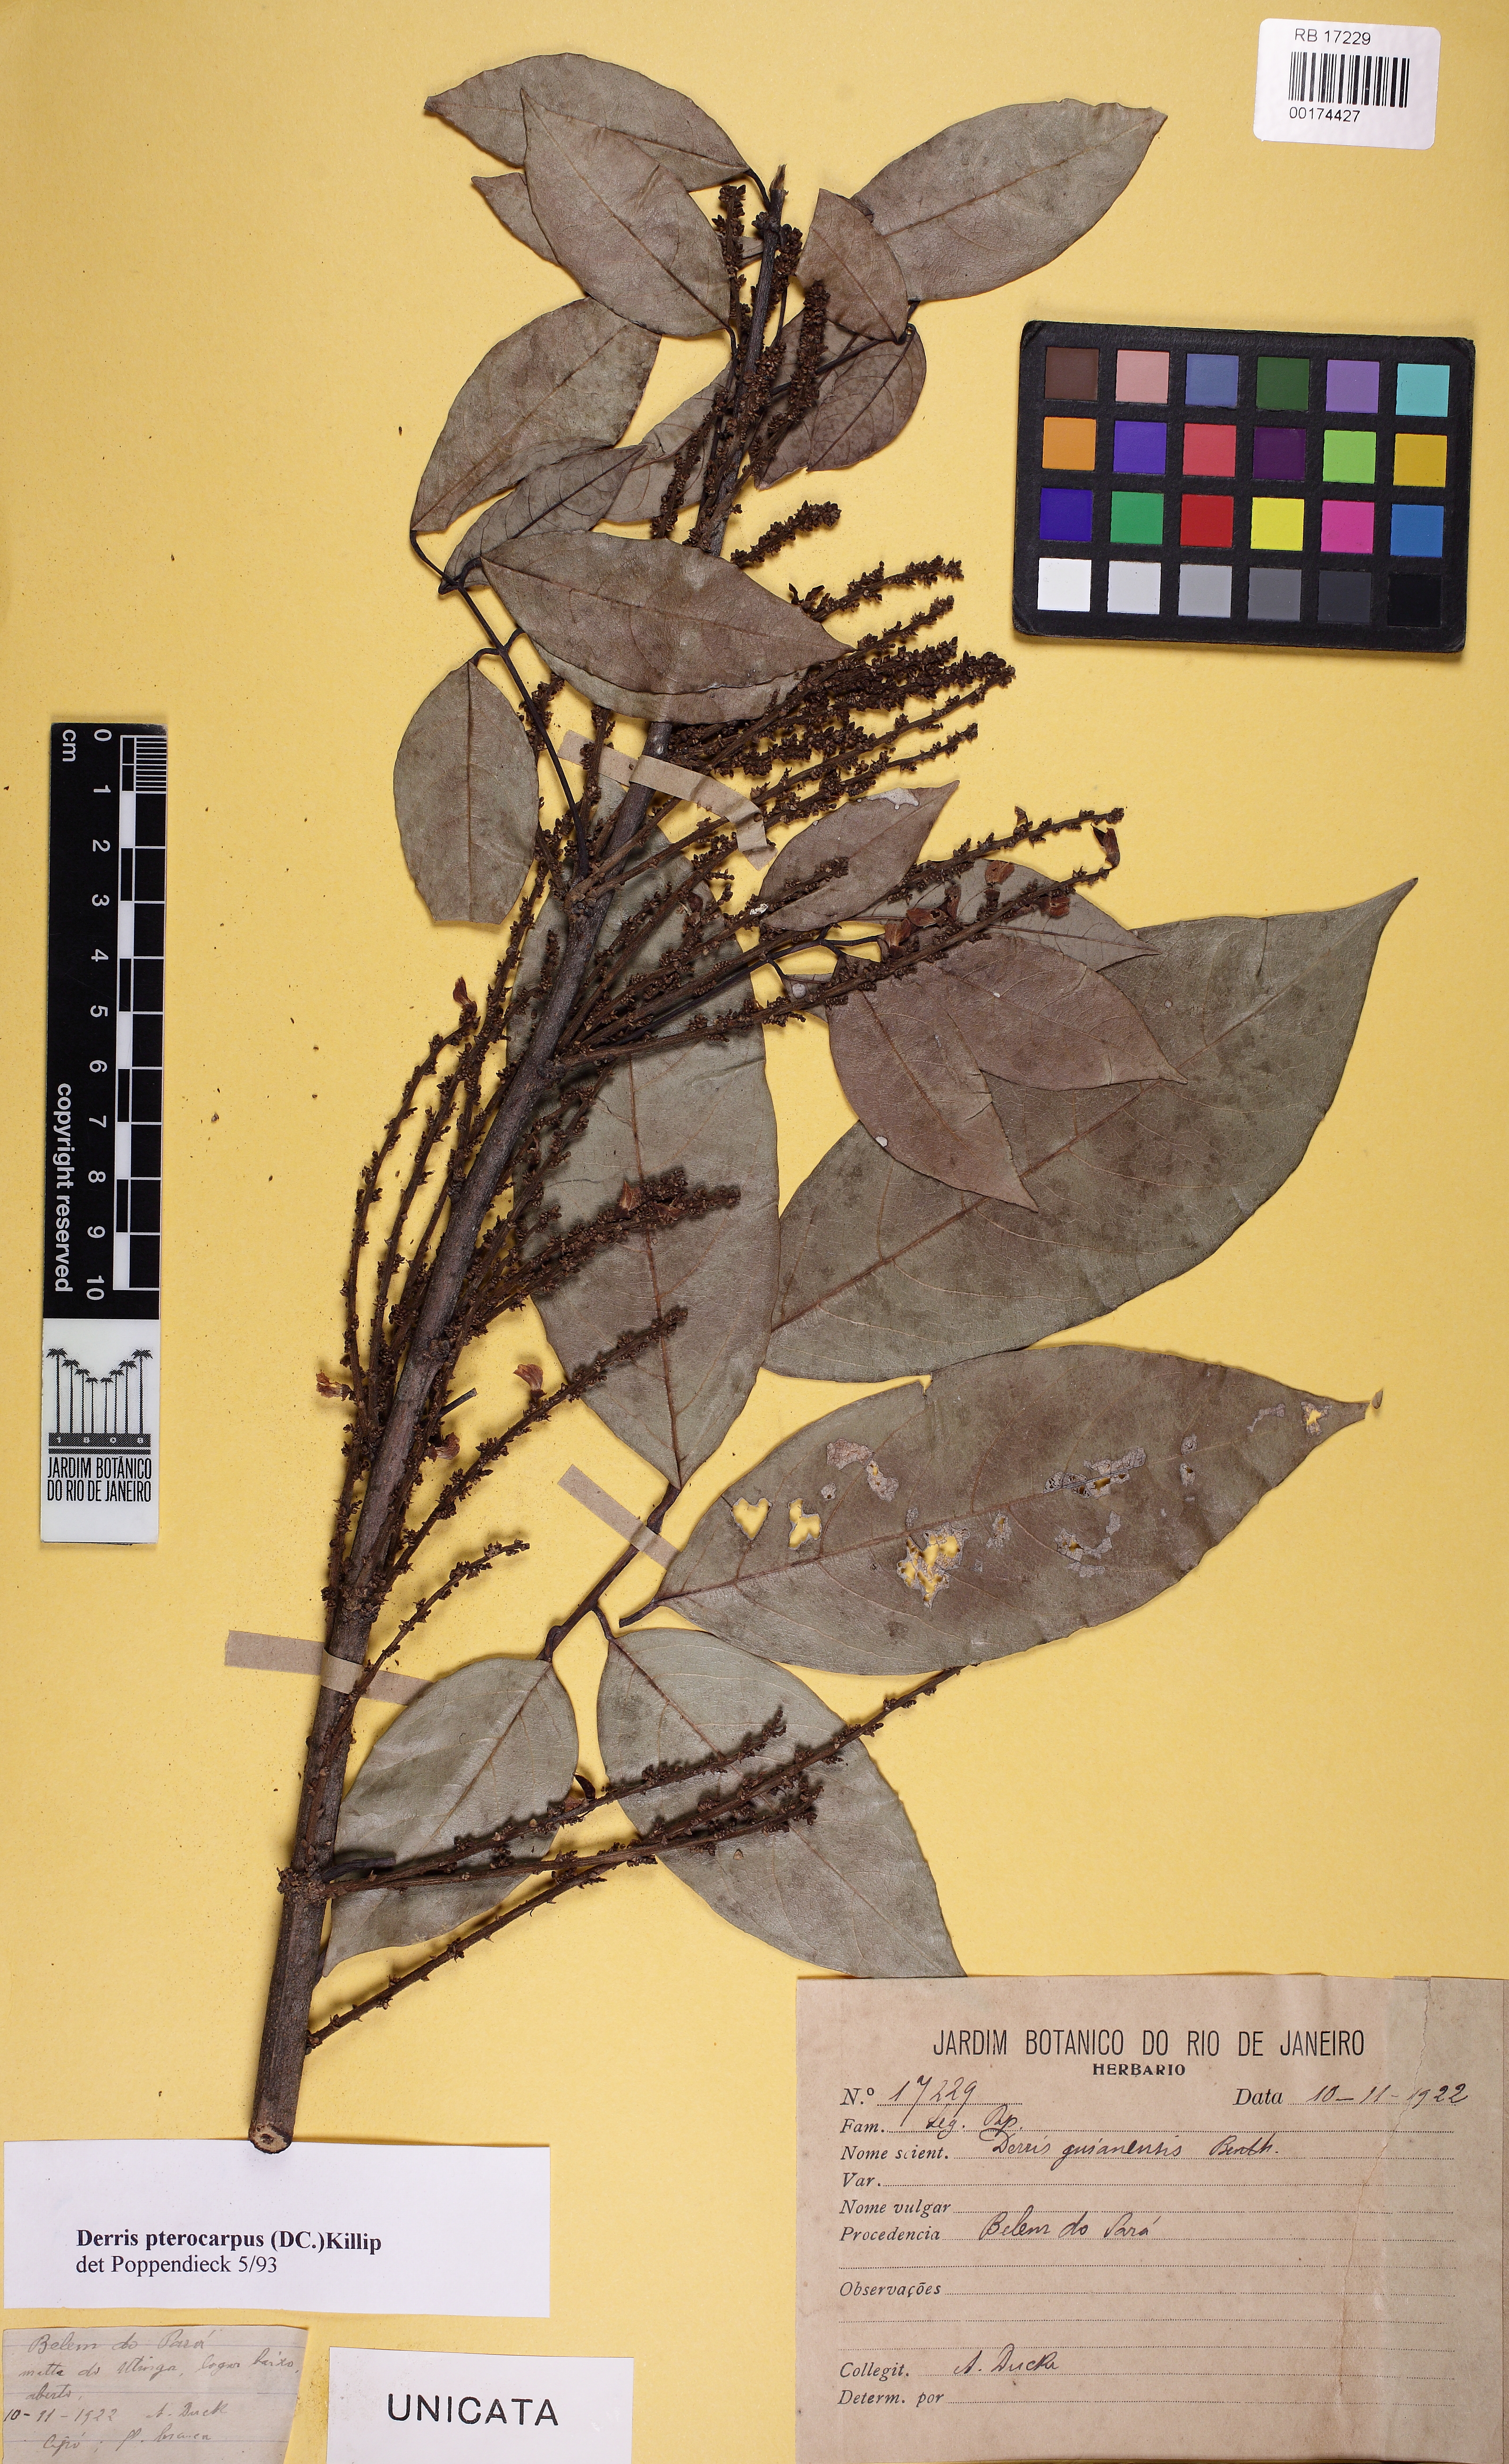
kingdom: Plantae
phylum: Tracheophyta
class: Magnoliopsida
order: Fabales
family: Fabaceae
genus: Deguelia
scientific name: Deguelia negrensis
